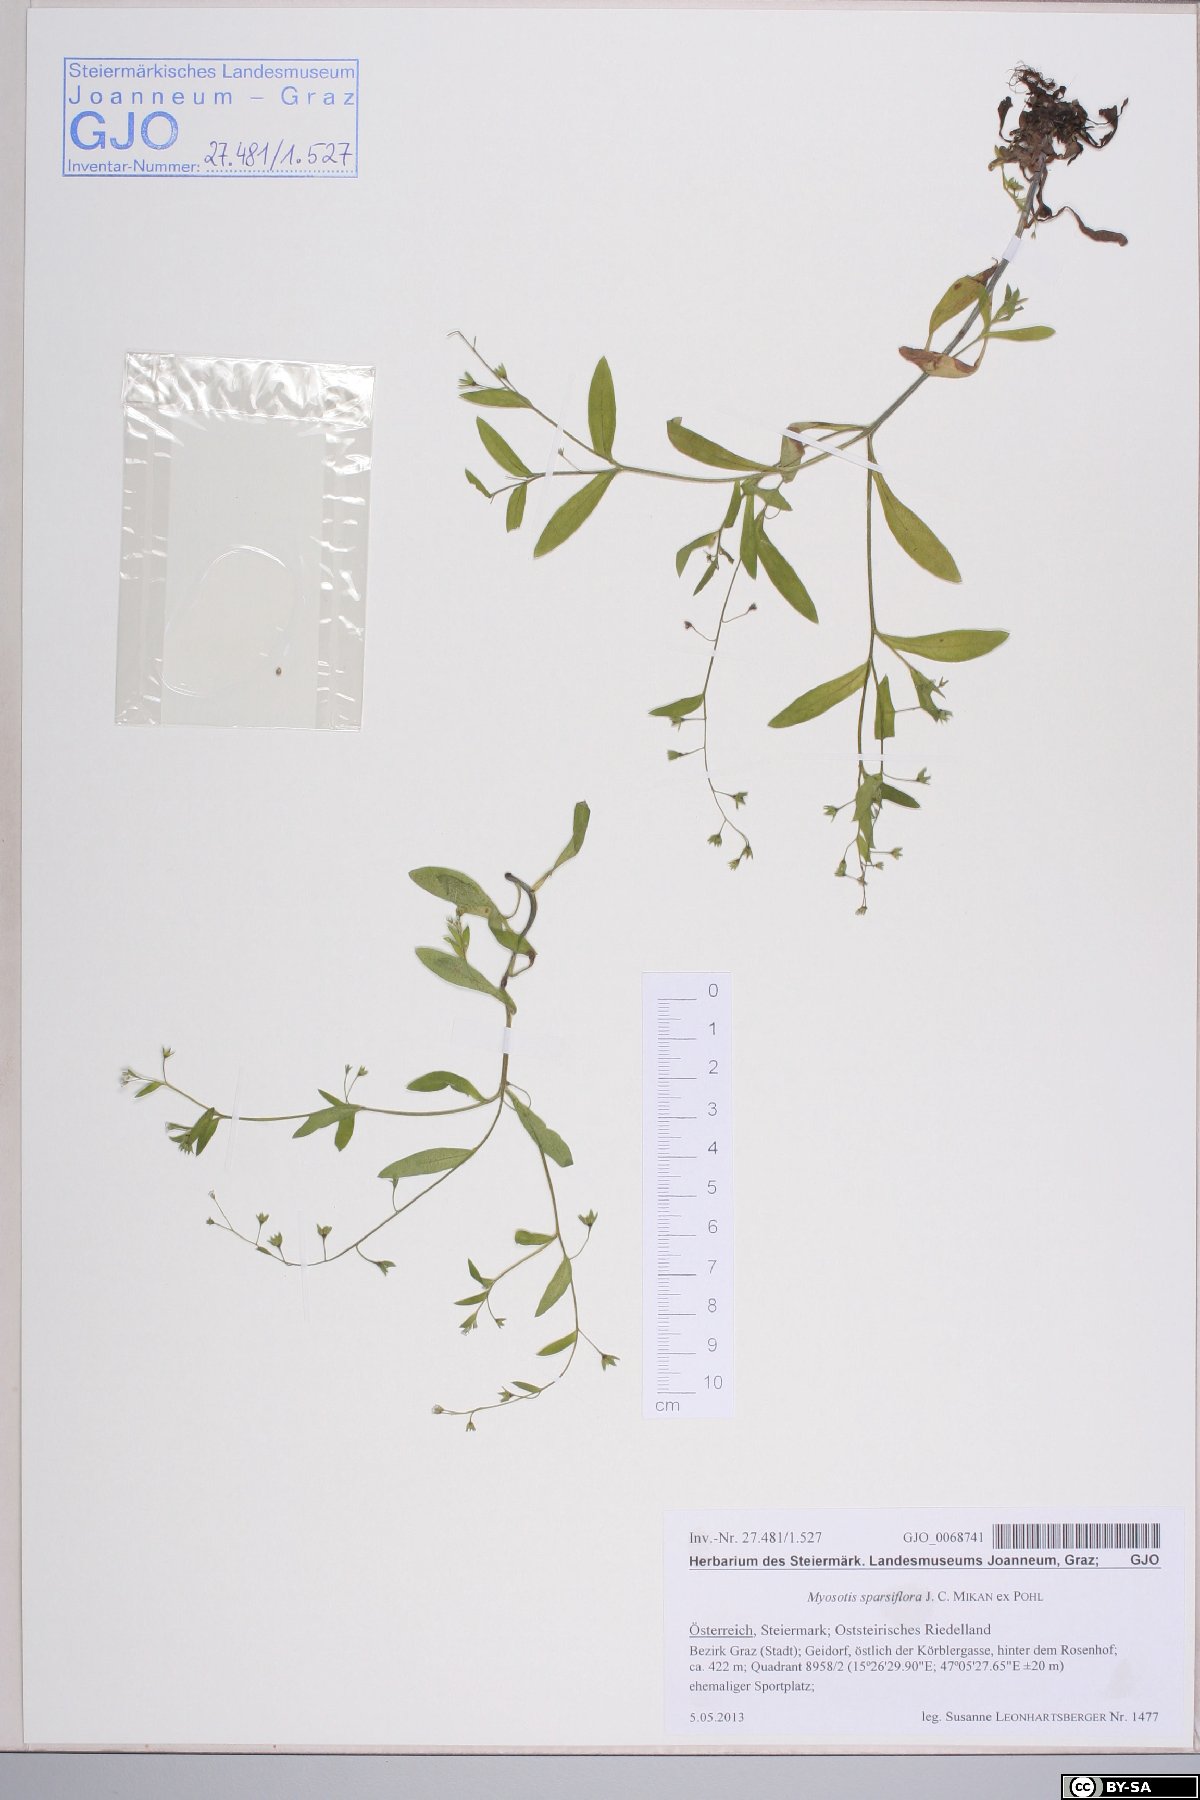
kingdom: Plantae
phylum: Tracheophyta
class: Magnoliopsida
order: Boraginales
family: Boraginaceae
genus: Myosotis
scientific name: Myosotis sparsiflora
